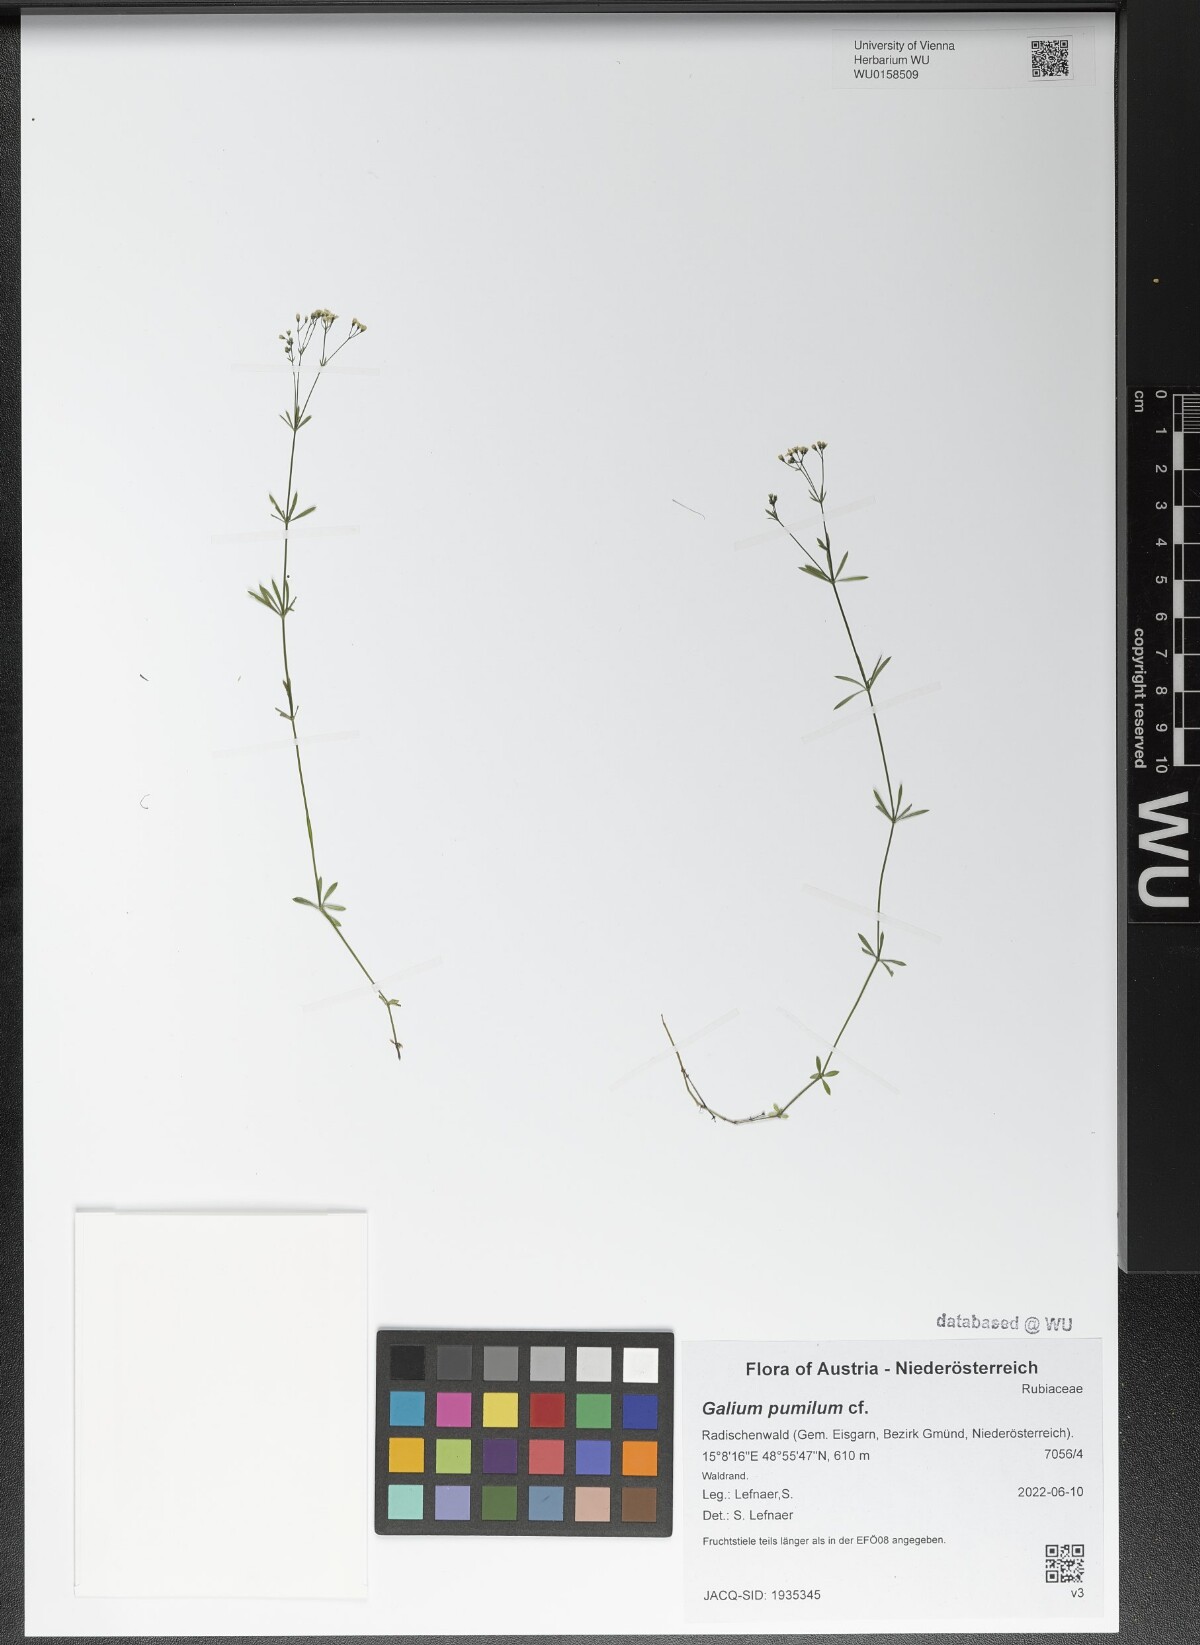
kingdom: Plantae
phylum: Tracheophyta
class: Magnoliopsida
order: Gentianales
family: Rubiaceae
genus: Galium
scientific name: Galium pumilum
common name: Slender bedstraw
